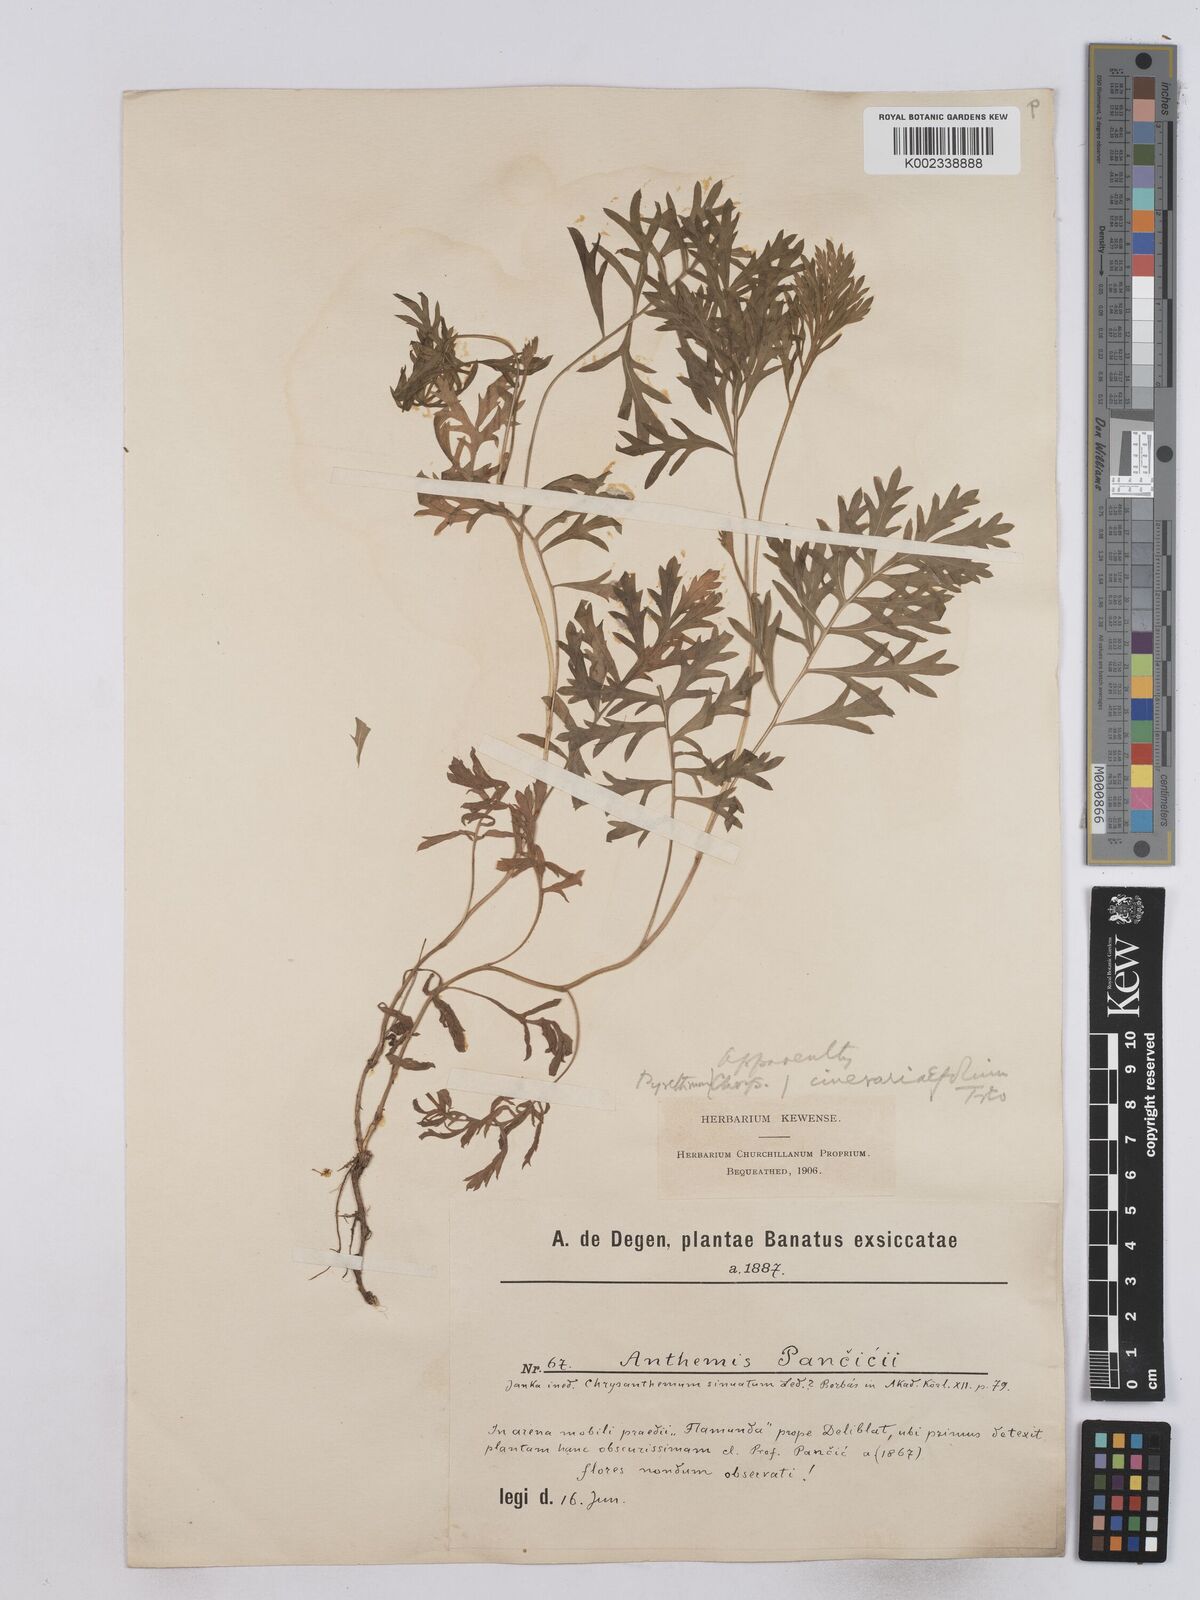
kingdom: Plantae
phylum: Tracheophyta
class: Magnoliopsida
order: Asterales
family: Asteraceae
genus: Tanacetum
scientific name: Tanacetum cinerariifolium
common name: Dalmatian pyrethrum
